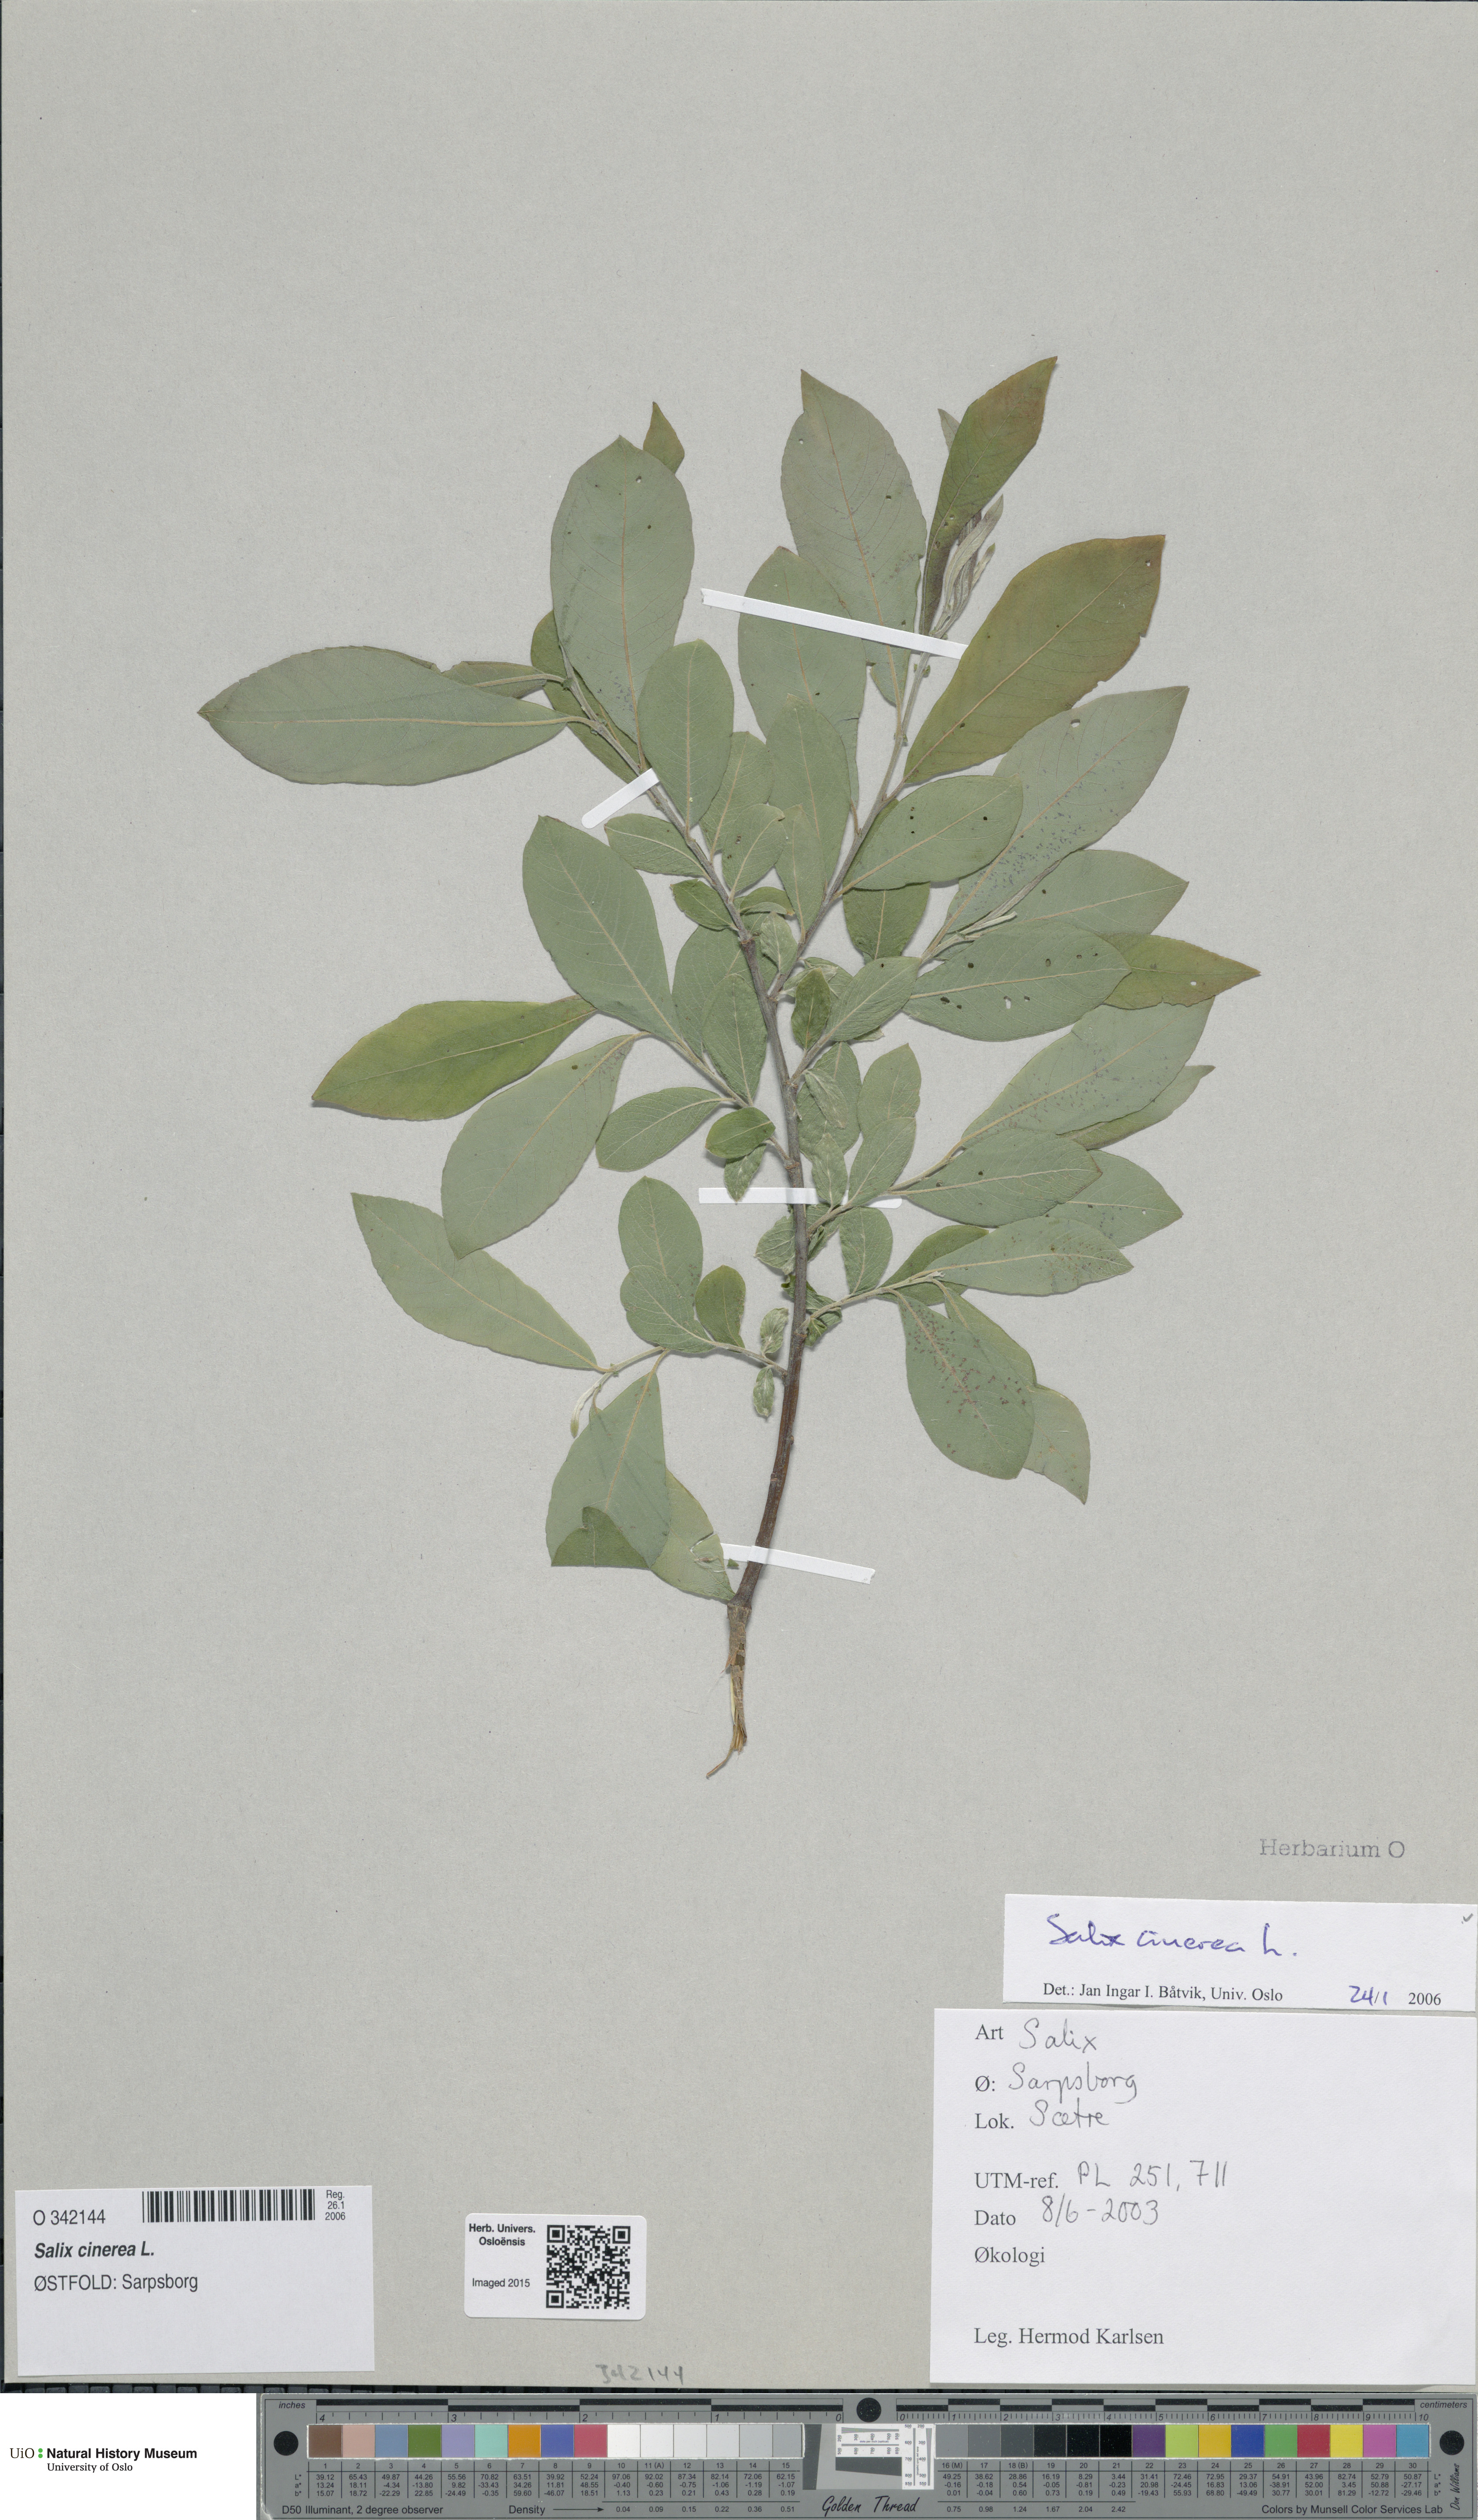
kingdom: Plantae
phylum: Tracheophyta
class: Magnoliopsida
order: Malpighiales
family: Salicaceae
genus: Salix
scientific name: Salix cinerea
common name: Common sallow
